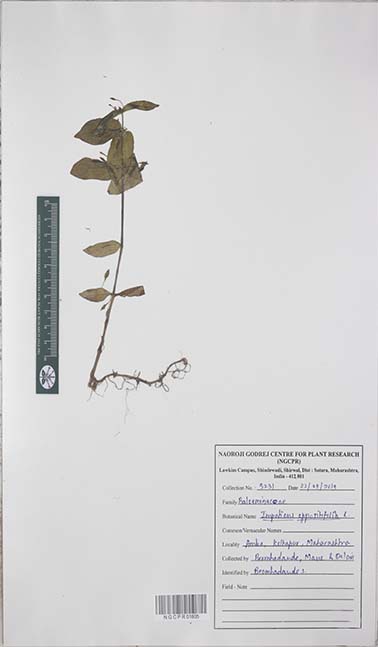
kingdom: Plantae
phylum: Tracheophyta
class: Magnoliopsida
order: Ericales
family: Balsaminaceae
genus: Impatiens
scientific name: Impatiens oppositifolia
